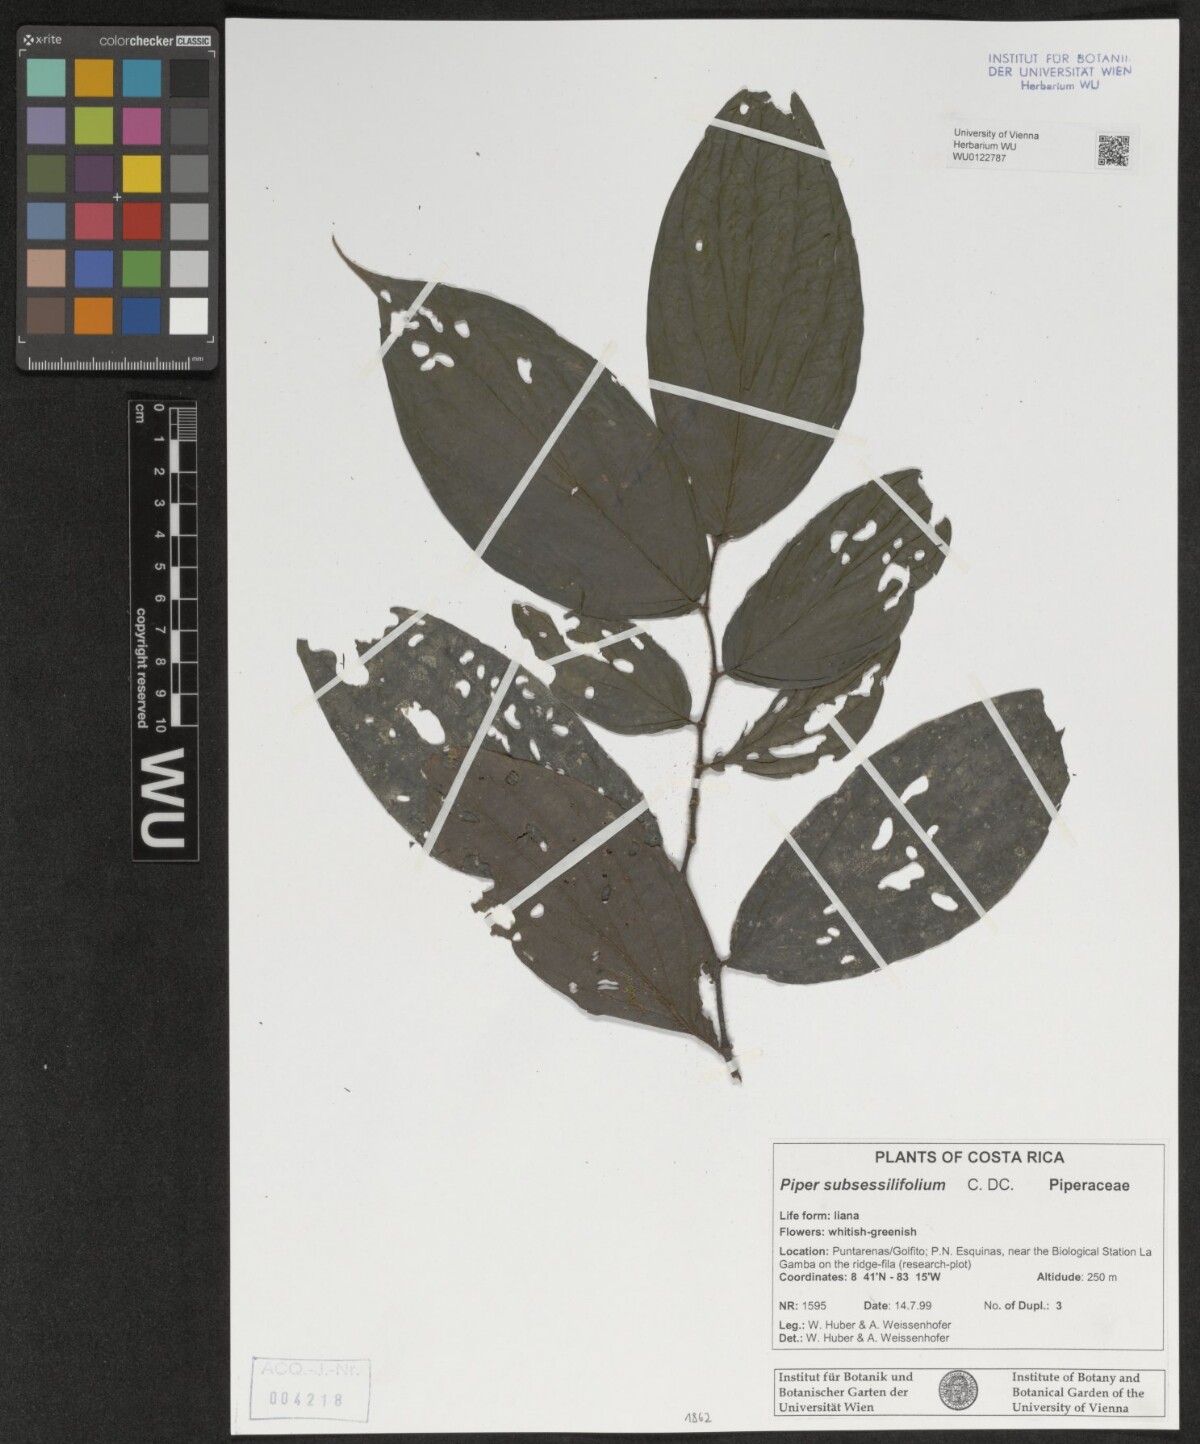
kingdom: Plantae
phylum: Tracheophyta
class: Magnoliopsida
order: Piperales
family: Piperaceae
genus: Piper
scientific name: Piper subsessilifolium
